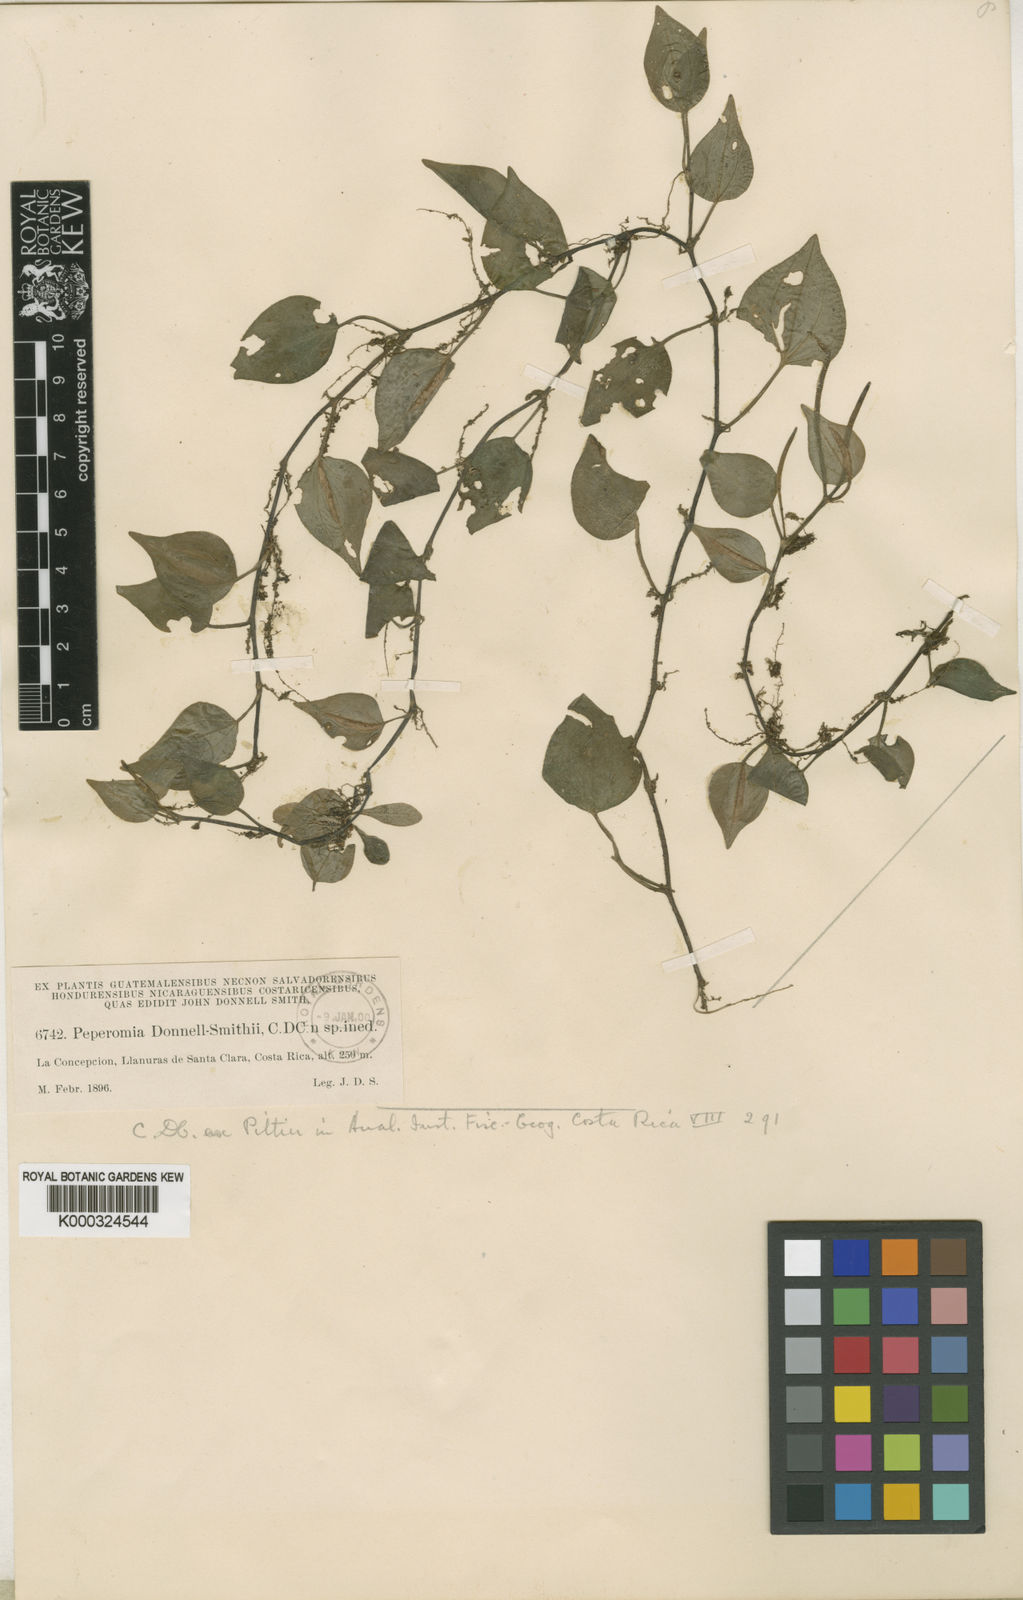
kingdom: Plantae
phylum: Tracheophyta
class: Magnoliopsida
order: Piperales
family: Piperaceae
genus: Peperomia
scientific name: Peperomia urocarpa
